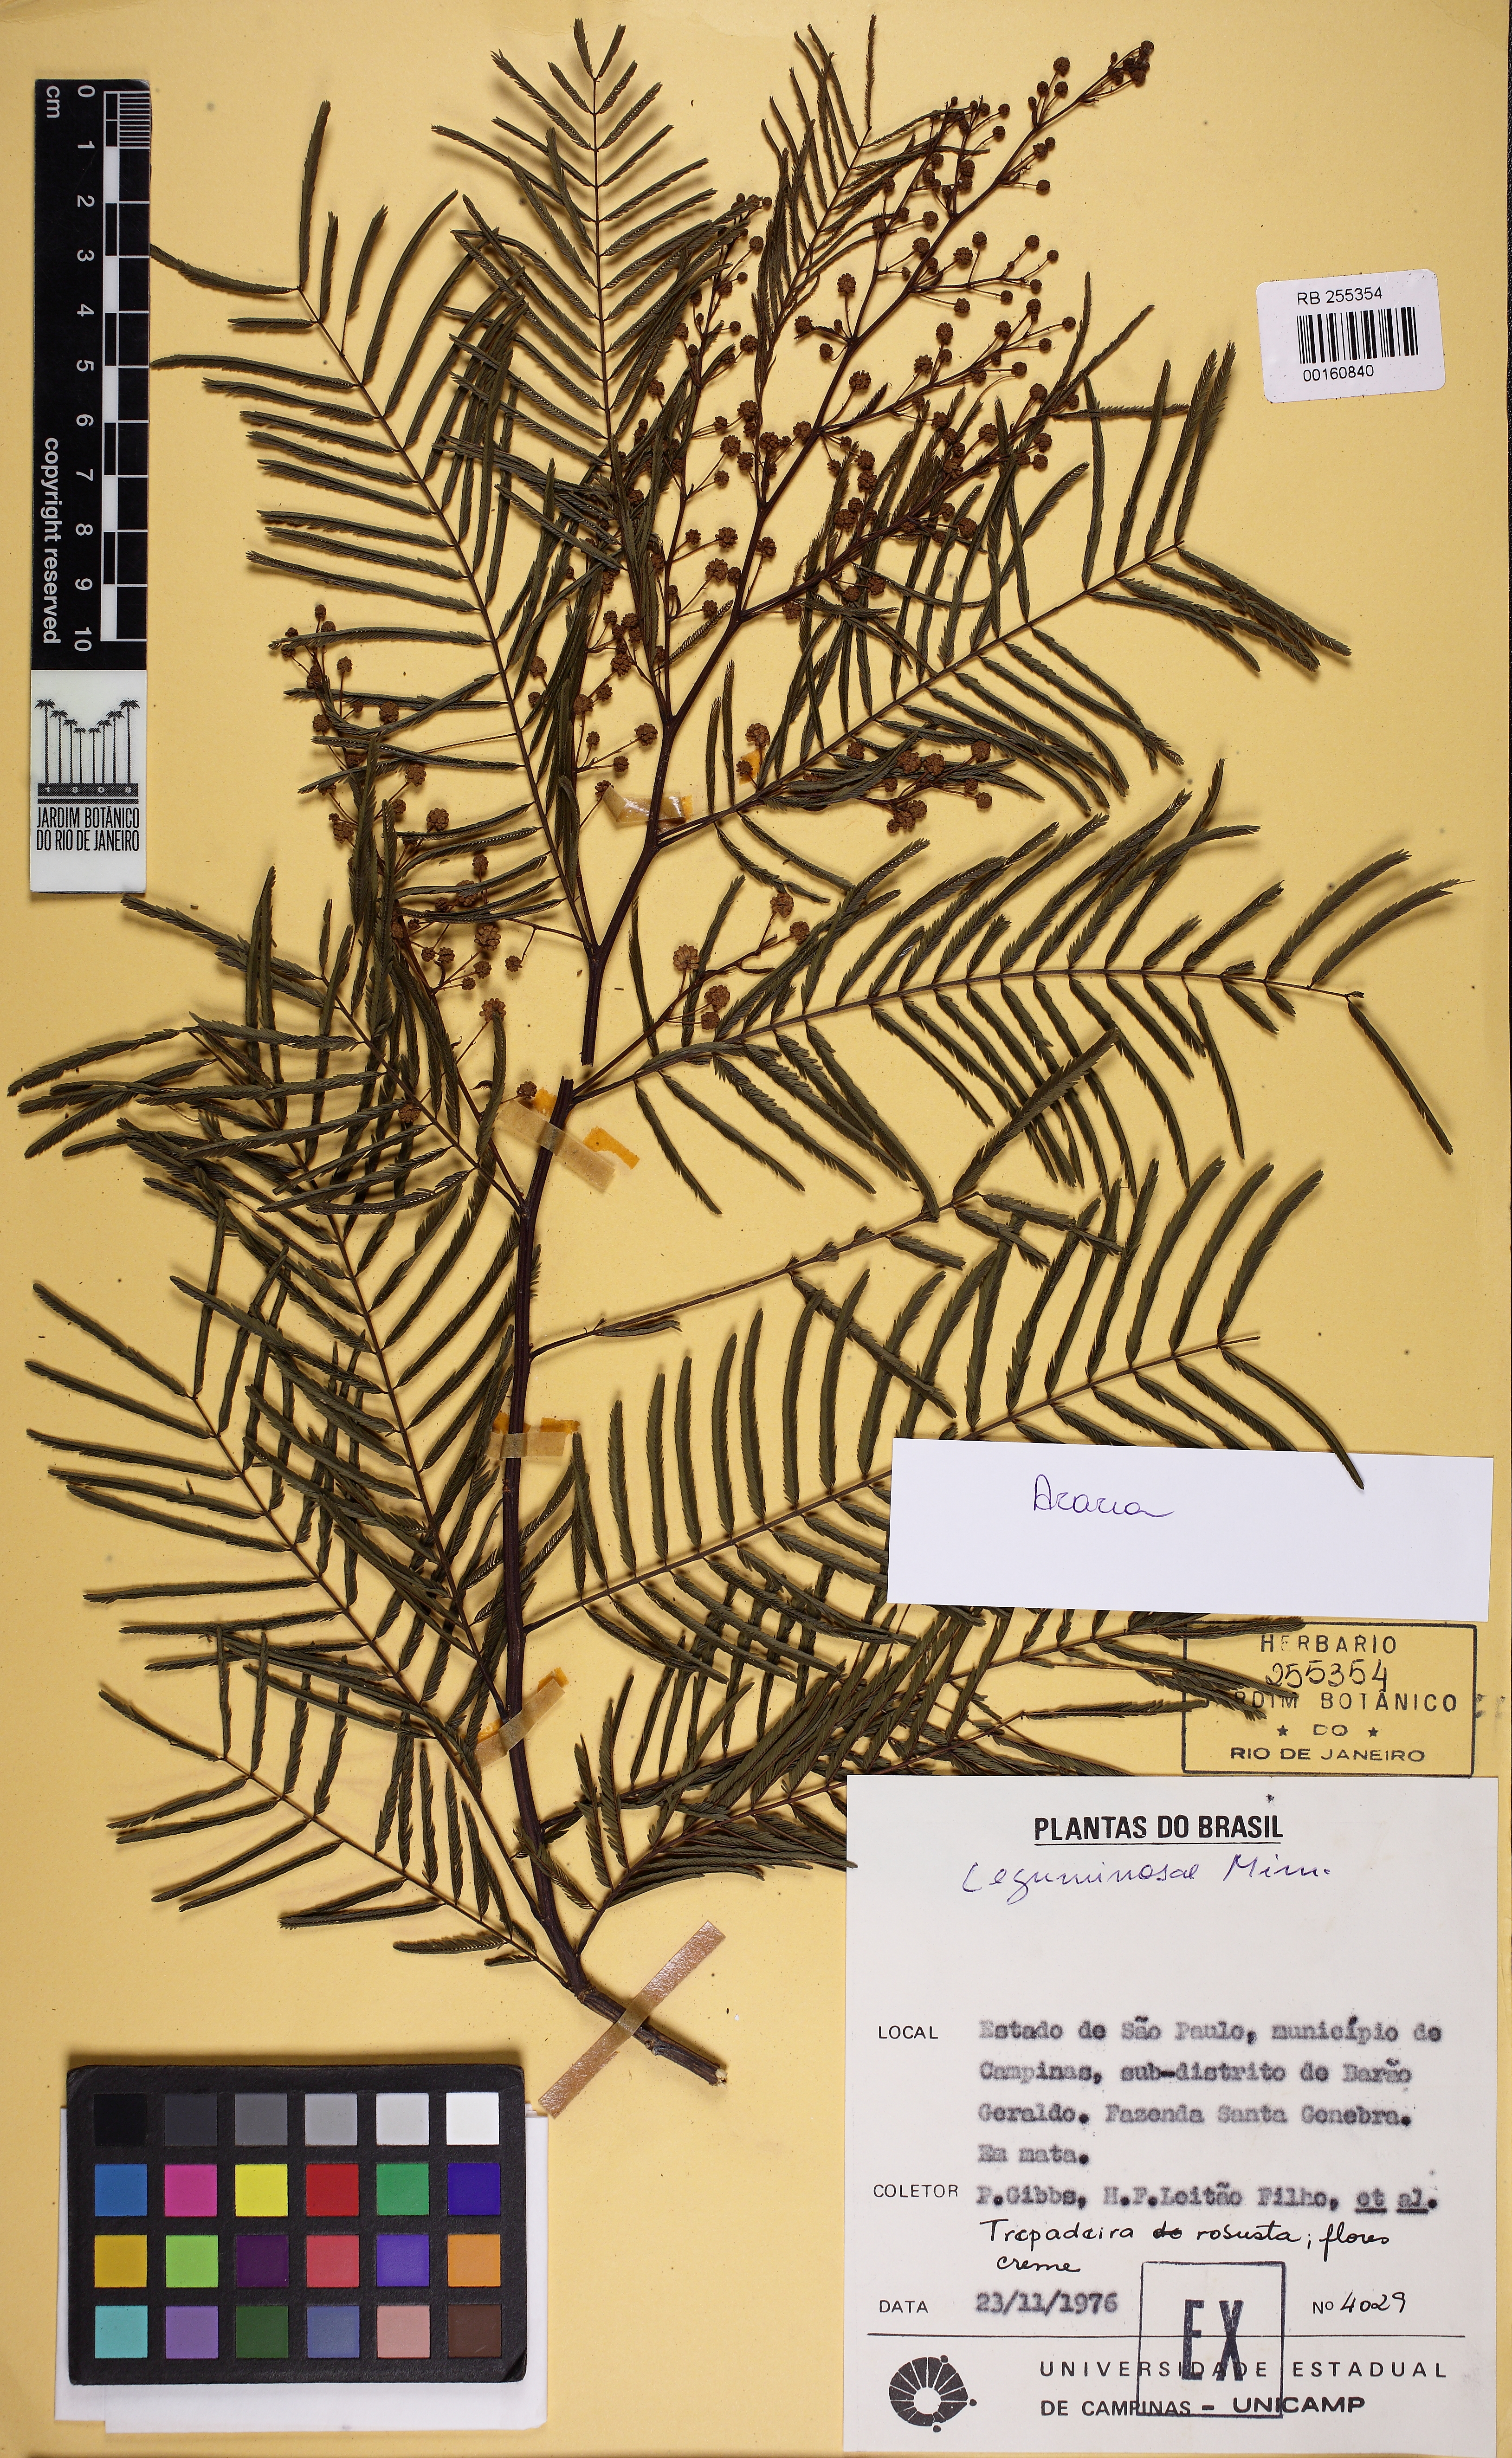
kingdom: Plantae
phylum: Tracheophyta
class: Magnoliopsida
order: Fabales
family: Fabaceae
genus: Acacia
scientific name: Acacia
